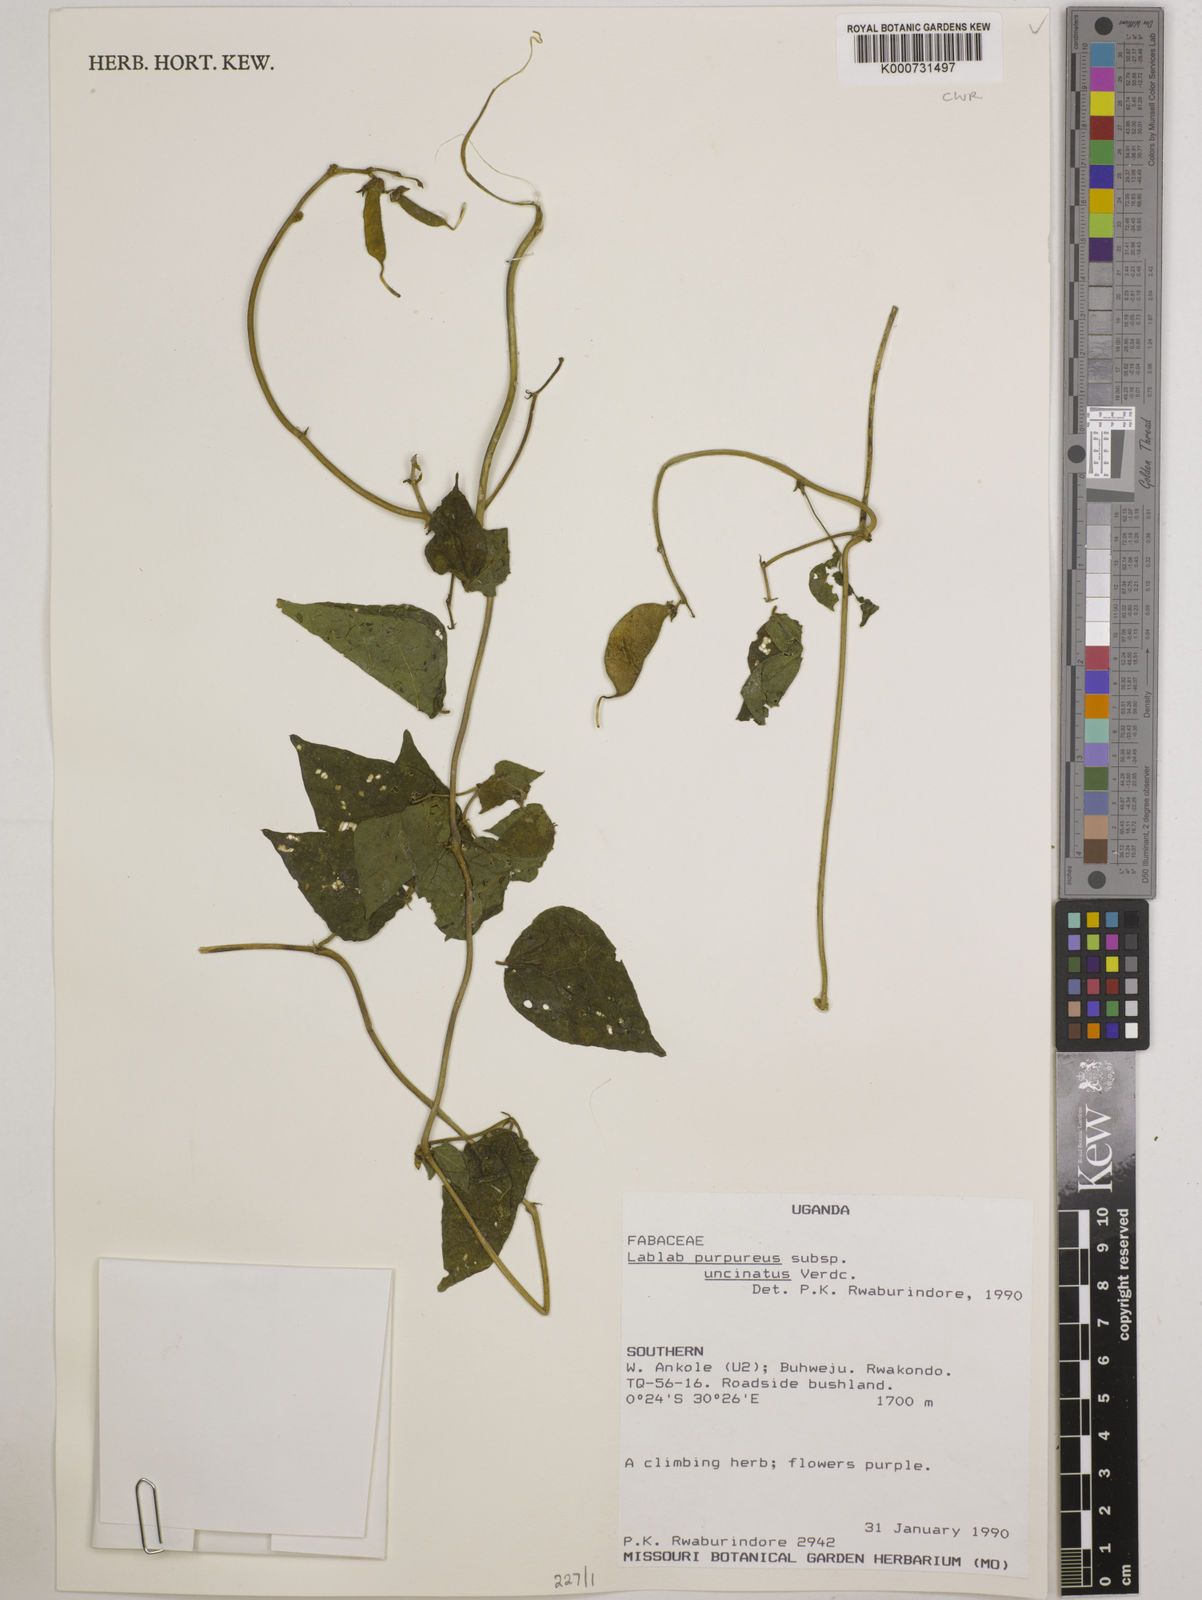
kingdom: Plantae
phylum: Tracheophyta
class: Magnoliopsida
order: Fabales
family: Fabaceae
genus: Lablab
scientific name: Lablab purpureus
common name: Lablab-bean
